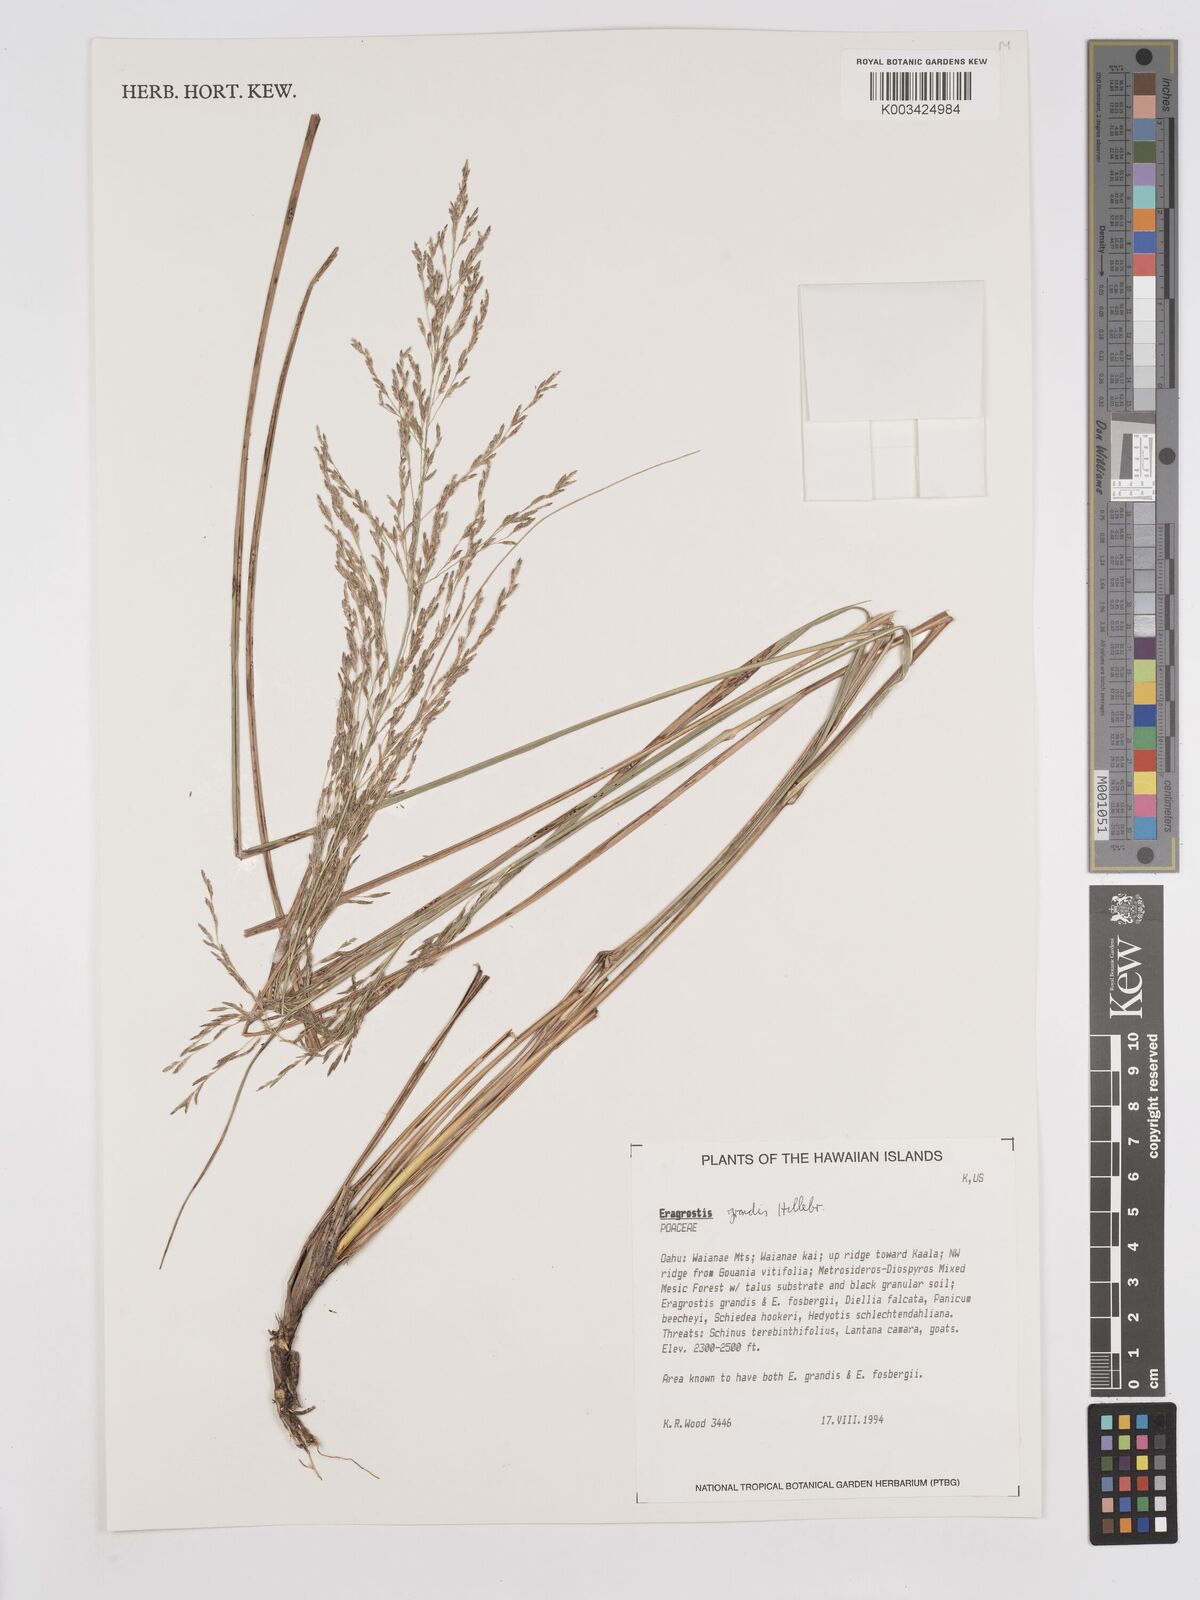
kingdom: Plantae
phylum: Tracheophyta
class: Liliopsida
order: Poales
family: Poaceae
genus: Eragrostis
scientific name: Eragrostis grandis
